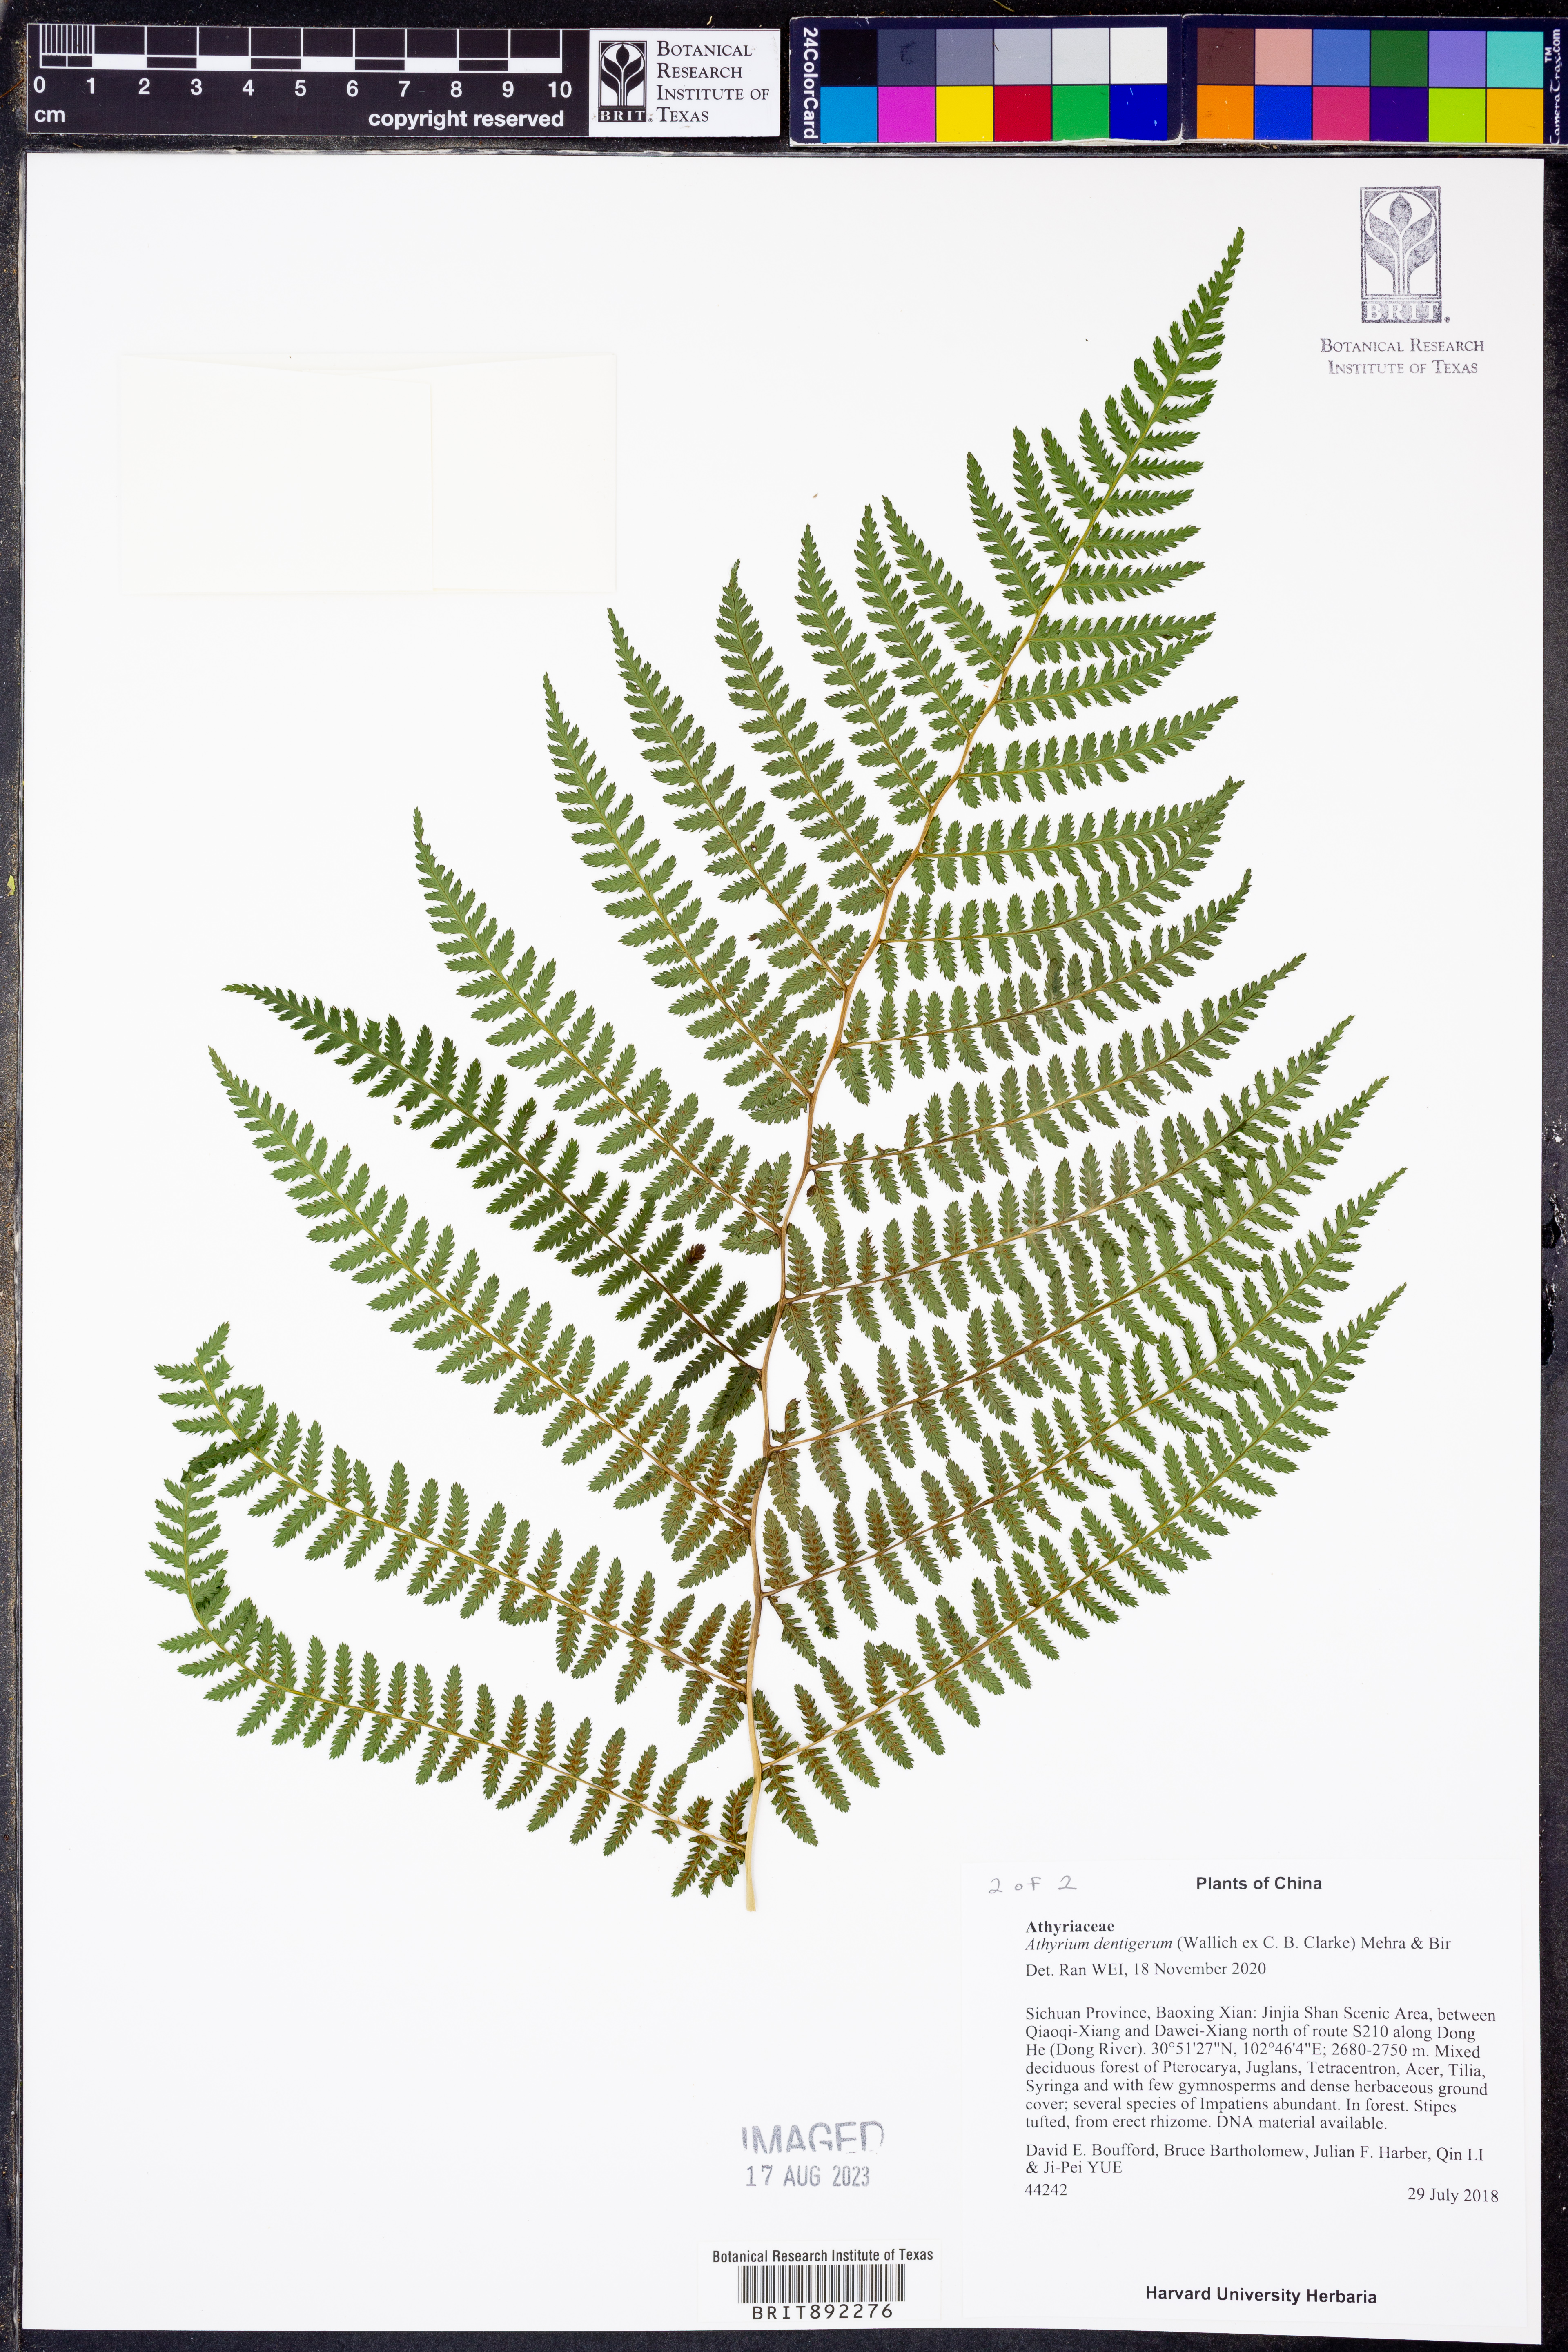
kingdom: Plantae
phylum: Tracheophyta
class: Polypodiopsida
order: Polypodiales
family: Athyriaceae
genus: Athyrium
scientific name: Athyrium attenuatum
